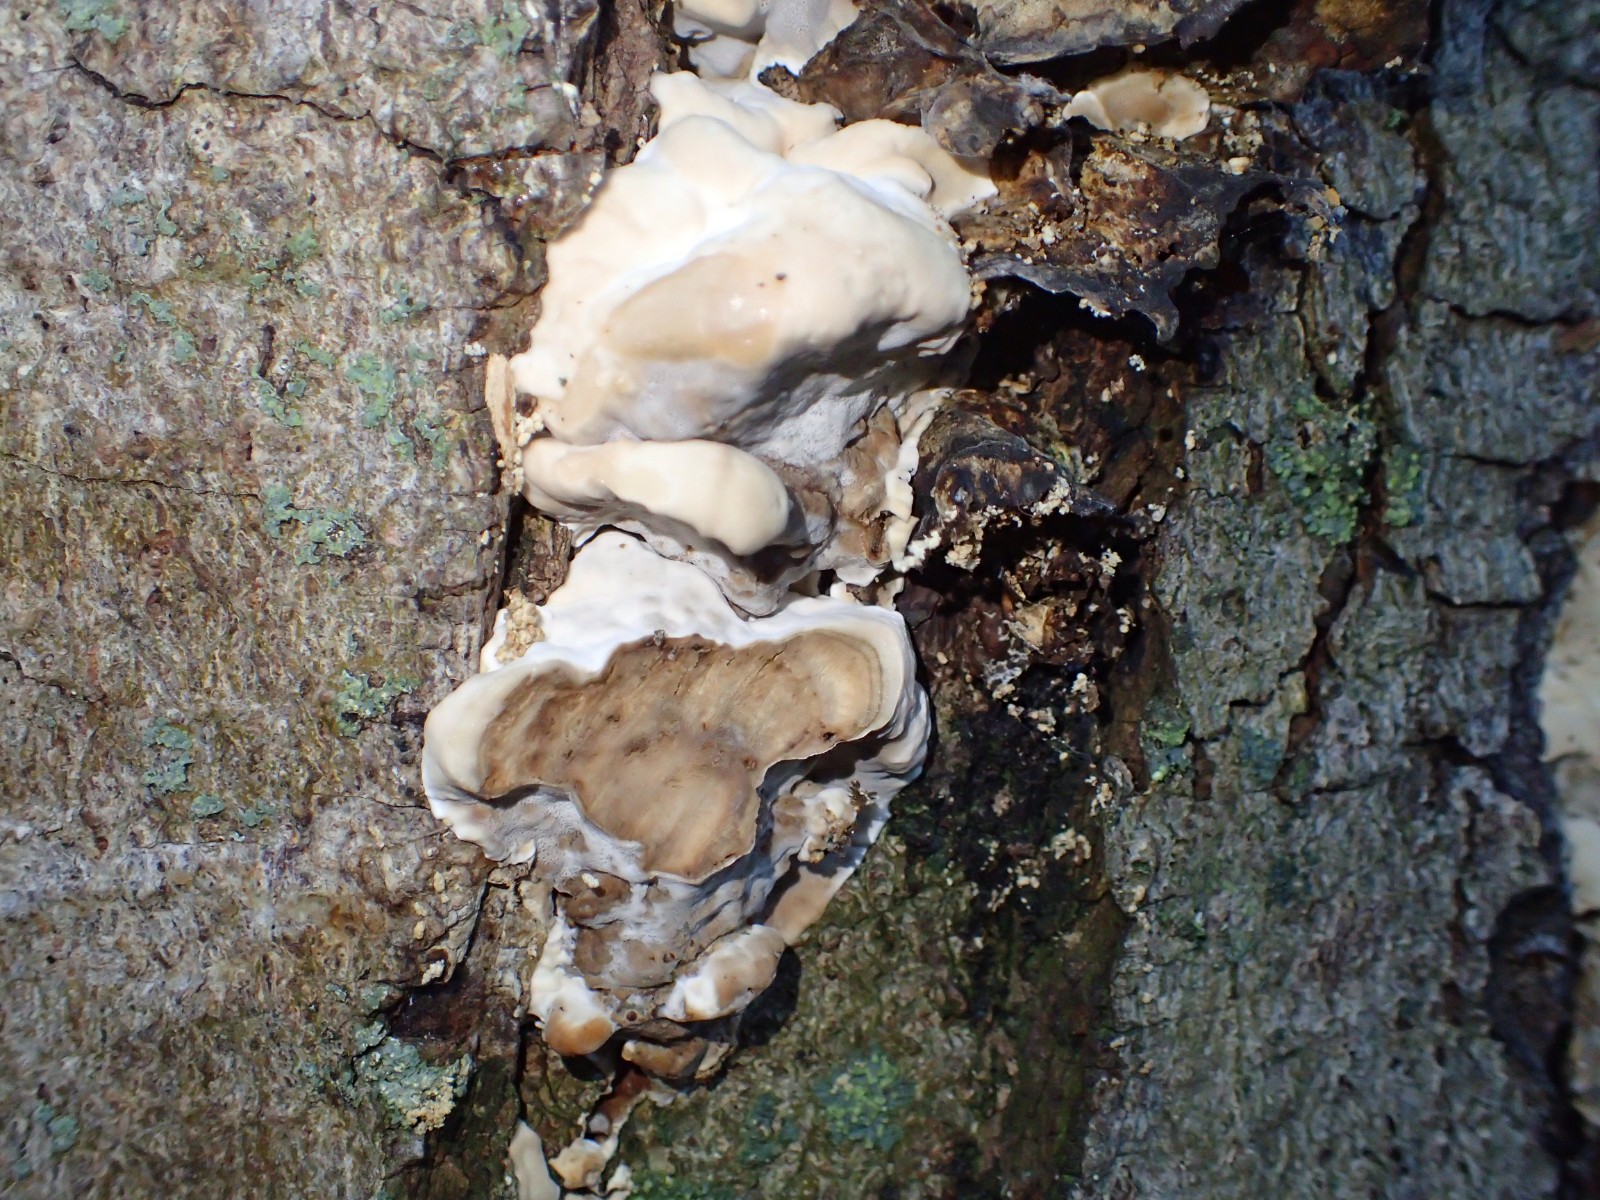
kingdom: Fungi
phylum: Basidiomycota
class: Agaricomycetes
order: Polyporales
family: Phanerochaetaceae
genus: Bjerkandera
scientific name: Bjerkandera fumosa
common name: grågul sodporesvamp
